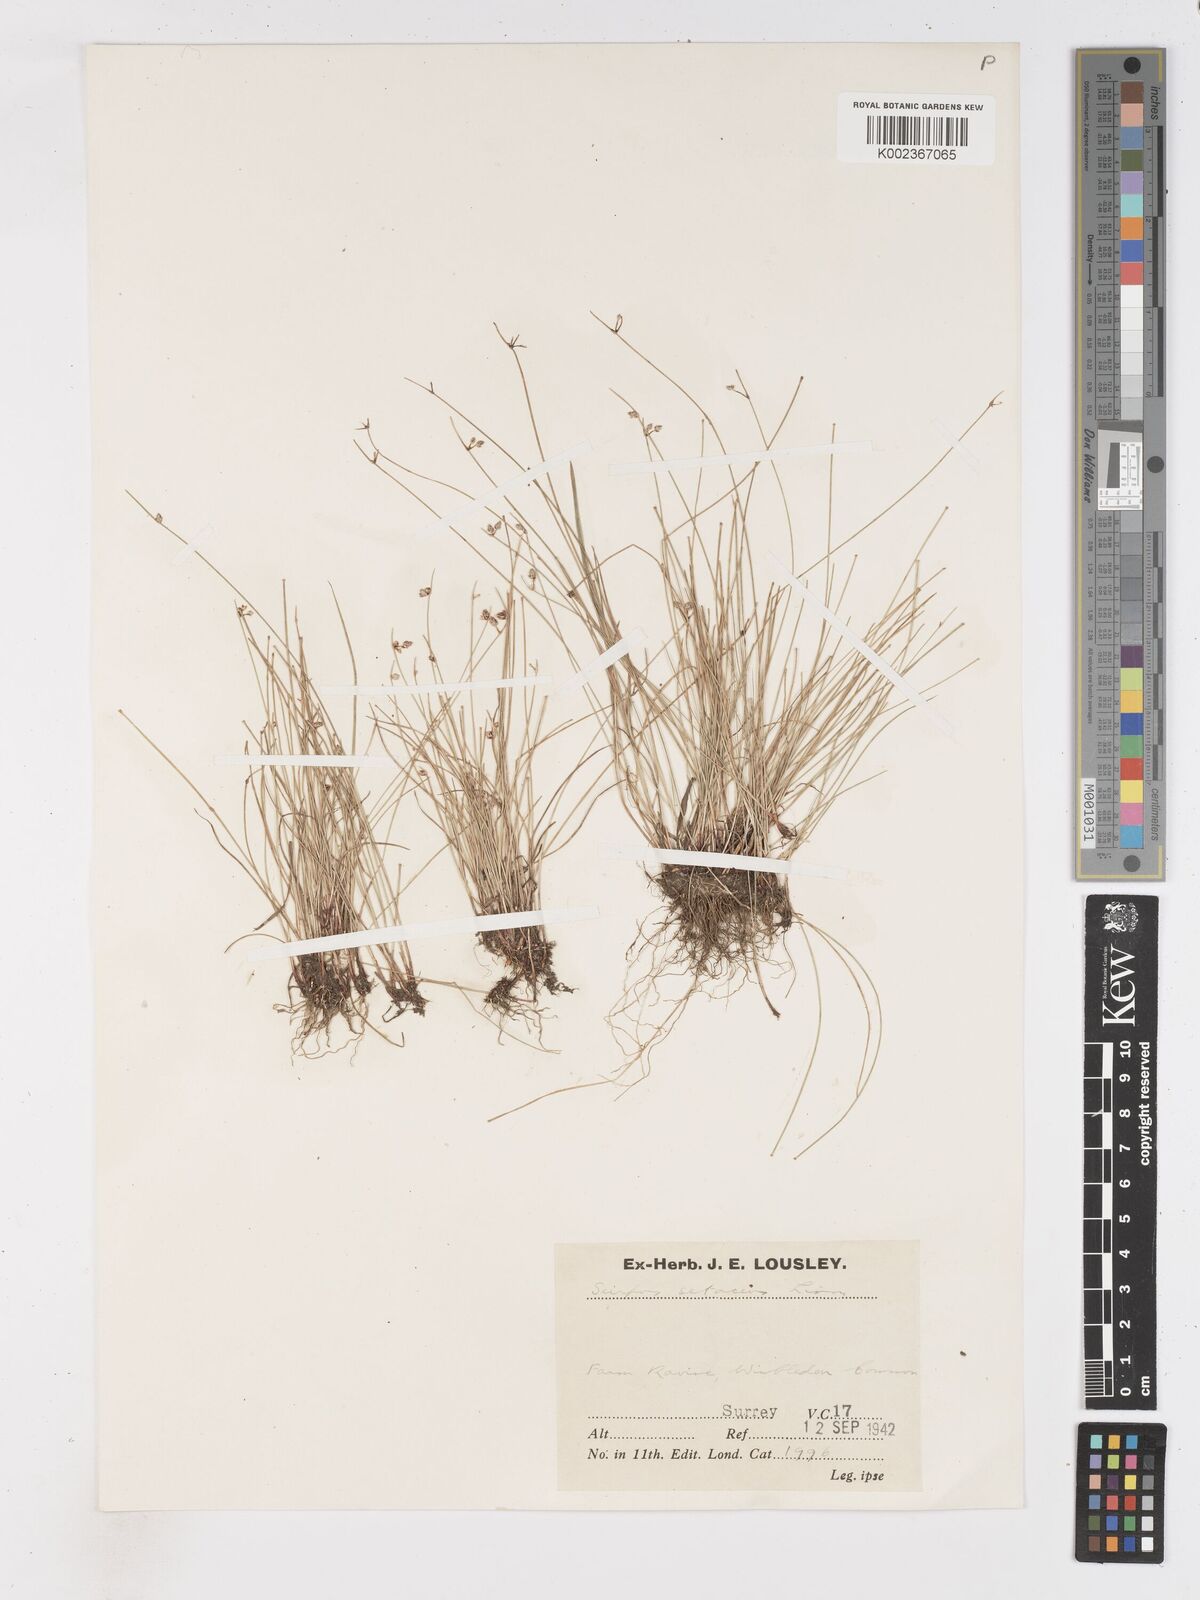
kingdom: Plantae
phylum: Tracheophyta
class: Liliopsida
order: Poales
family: Cyperaceae
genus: Isolepis
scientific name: Isolepis setacea
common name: Bristle club-rush
